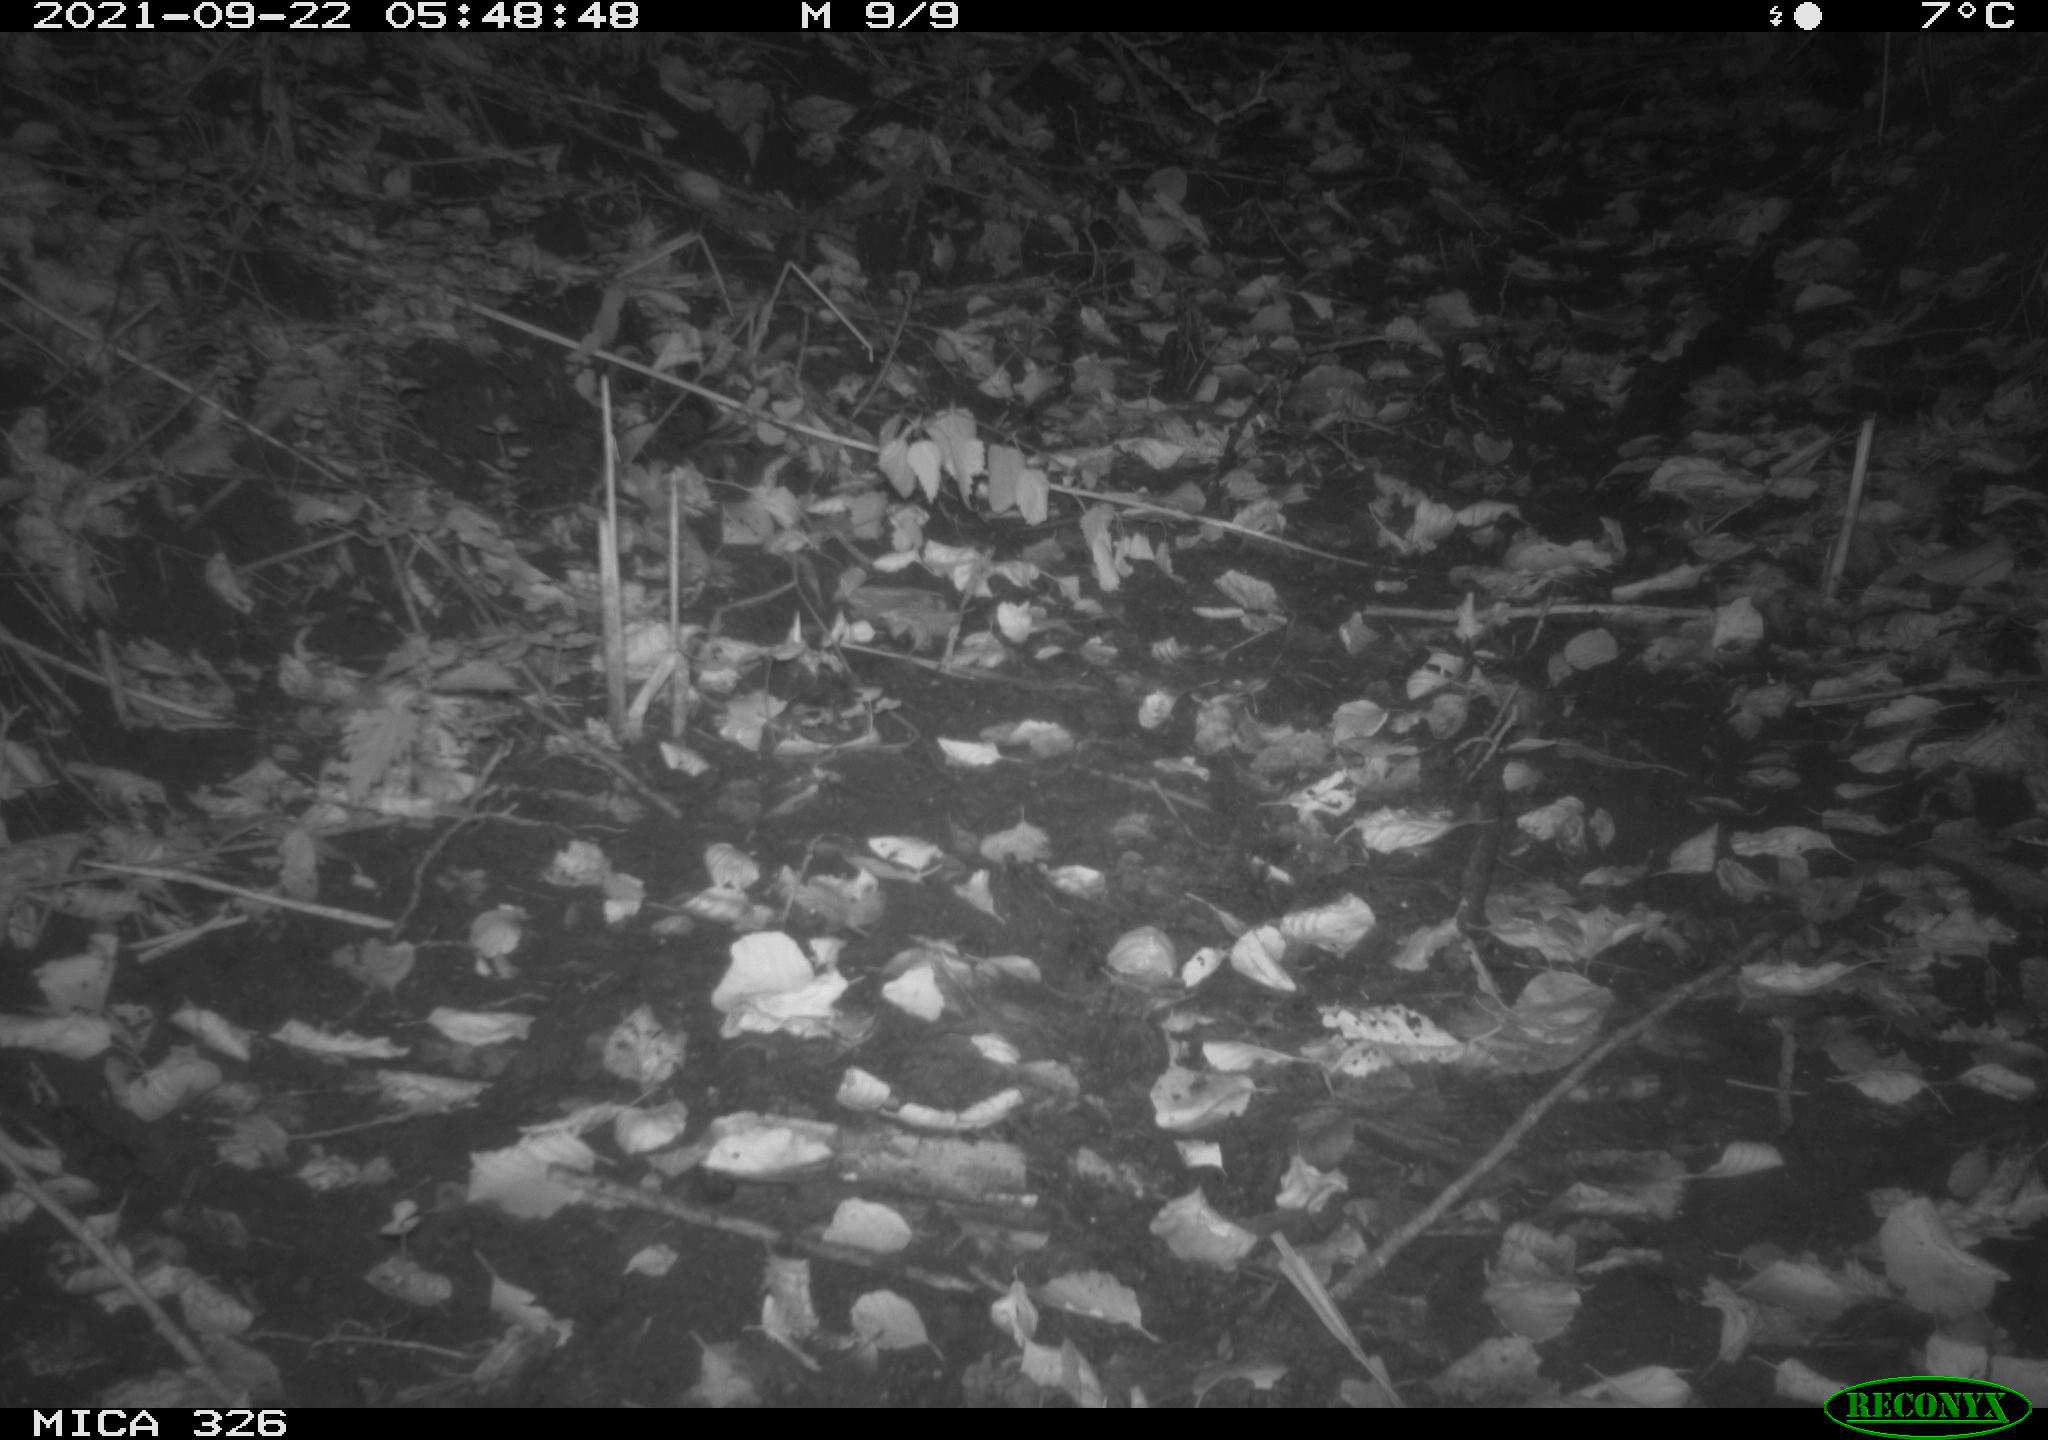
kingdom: Animalia
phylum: Chordata
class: Mammalia
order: Rodentia
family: Muridae
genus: Rattus
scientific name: Rattus norvegicus
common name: Brown rat
